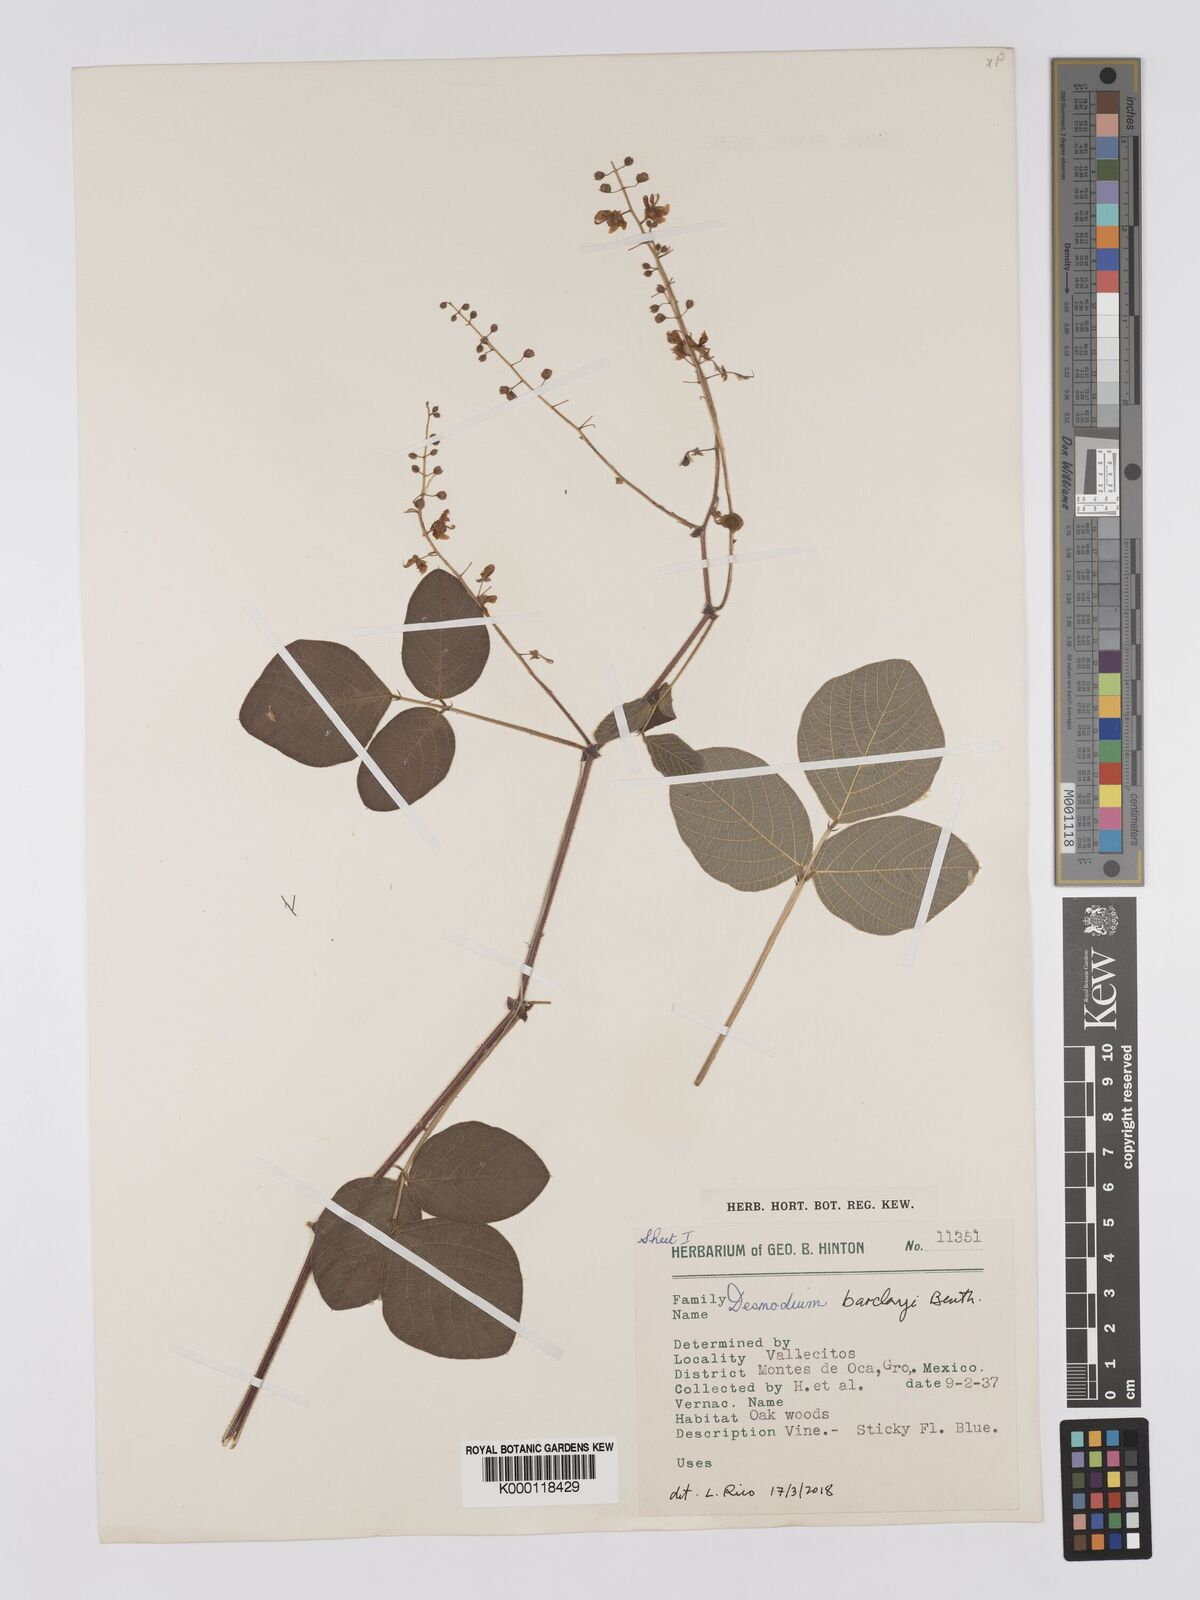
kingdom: Plantae
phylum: Tracheophyta
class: Magnoliopsida
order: Fabales
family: Fabaceae
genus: Desmodium
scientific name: Desmodium infractum
